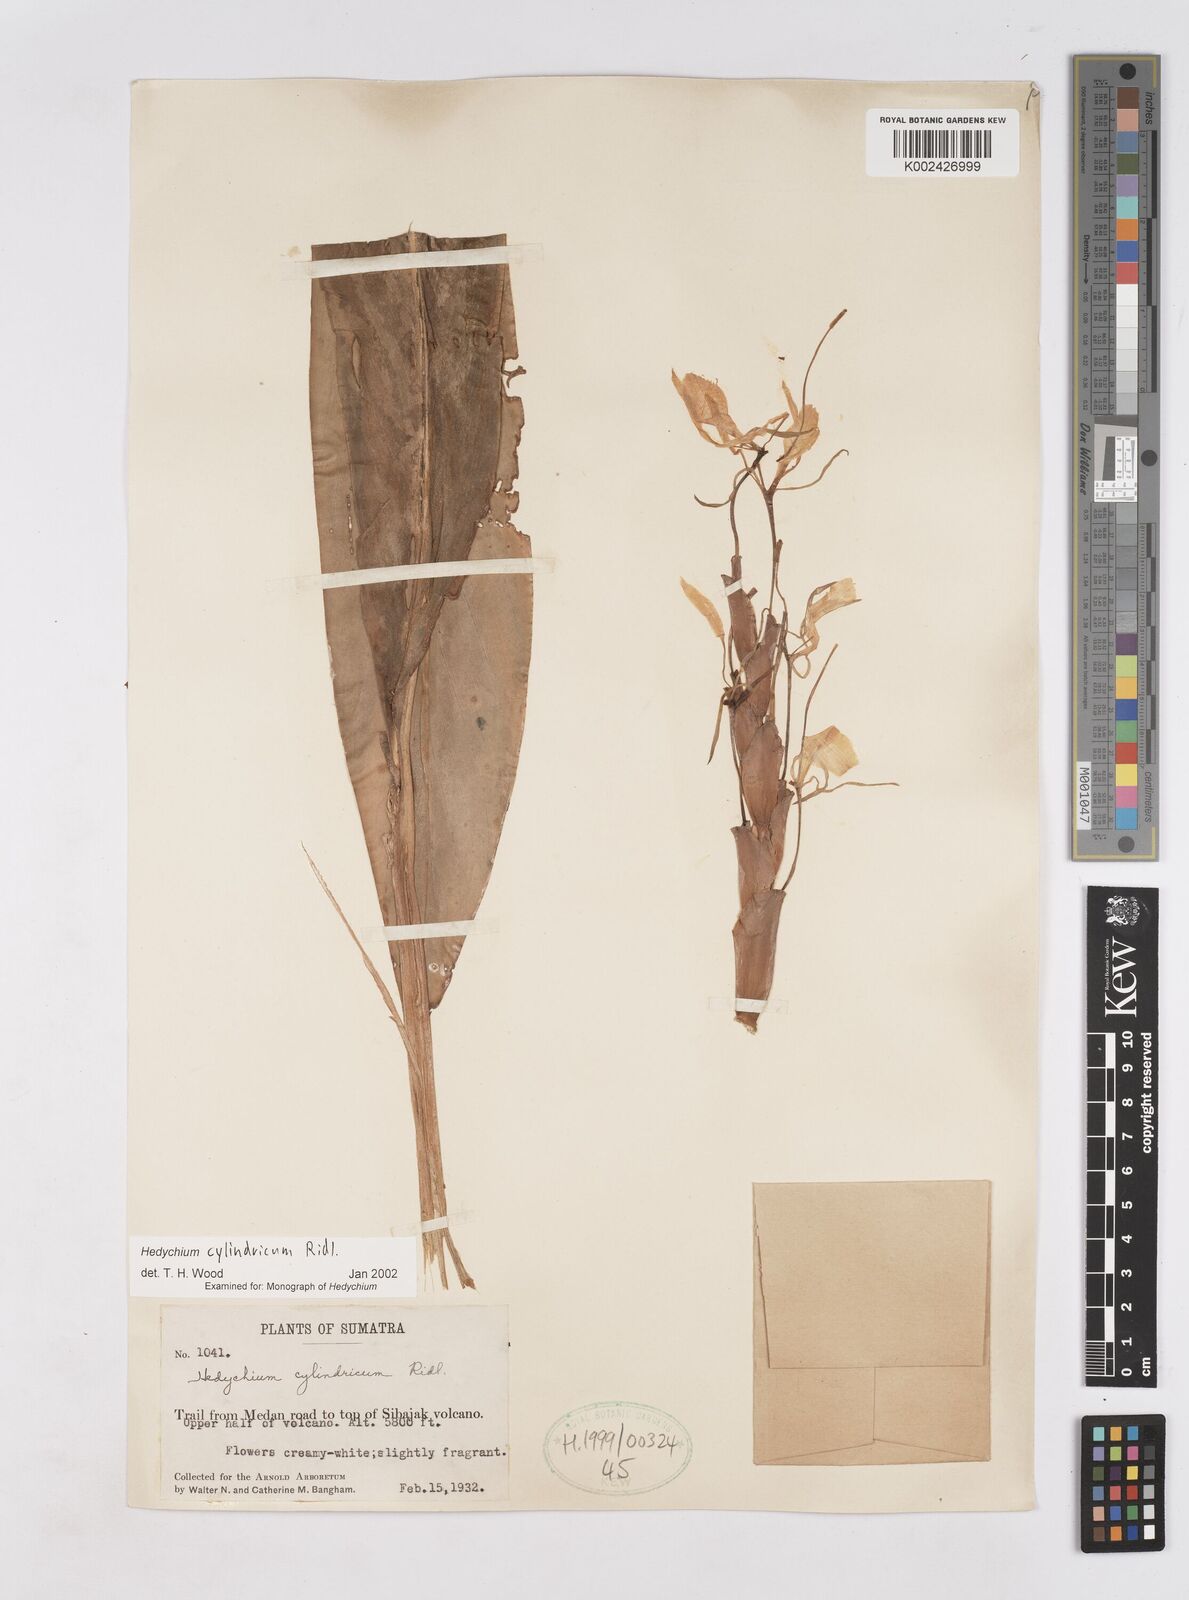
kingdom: Plantae
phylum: Tracheophyta
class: Liliopsida
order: Zingiberales
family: Zingiberaceae
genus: Hedychium
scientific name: Hedychium cylindricum
